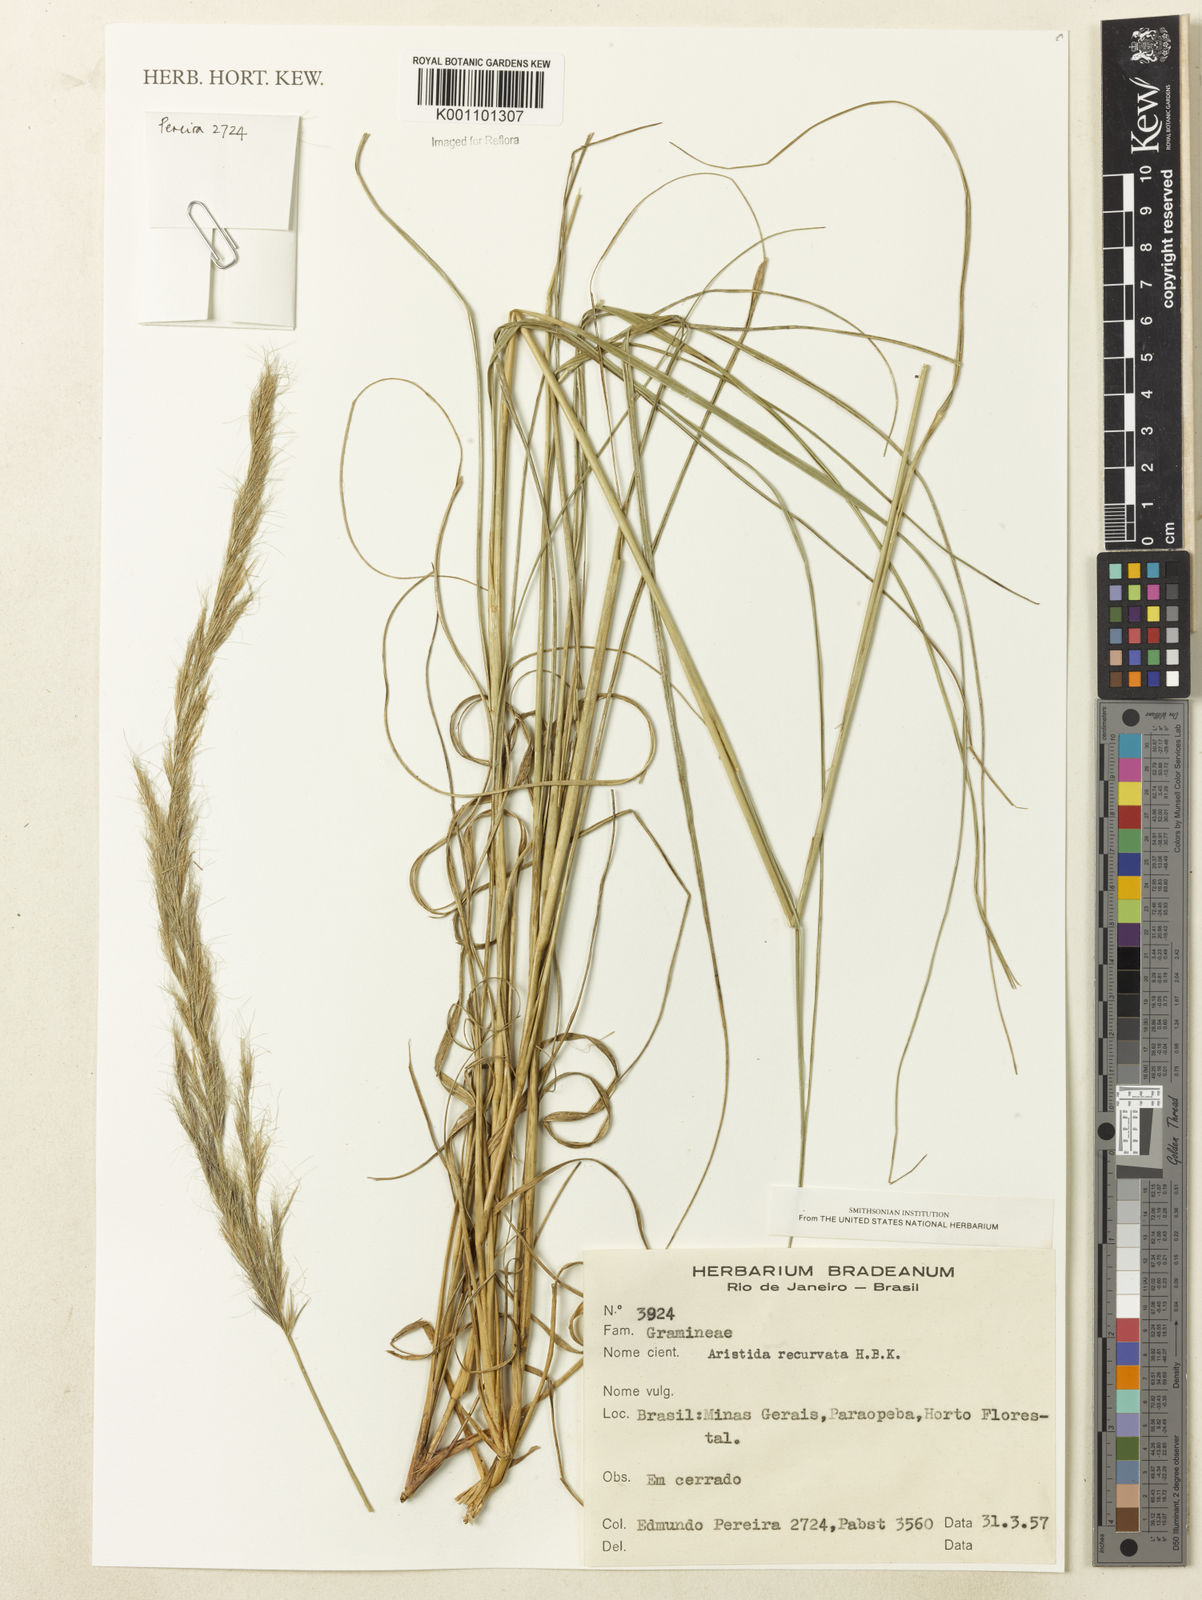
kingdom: Plantae
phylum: Tracheophyta
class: Liliopsida
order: Poales
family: Poaceae
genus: Aristida
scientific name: Aristida recurvata
